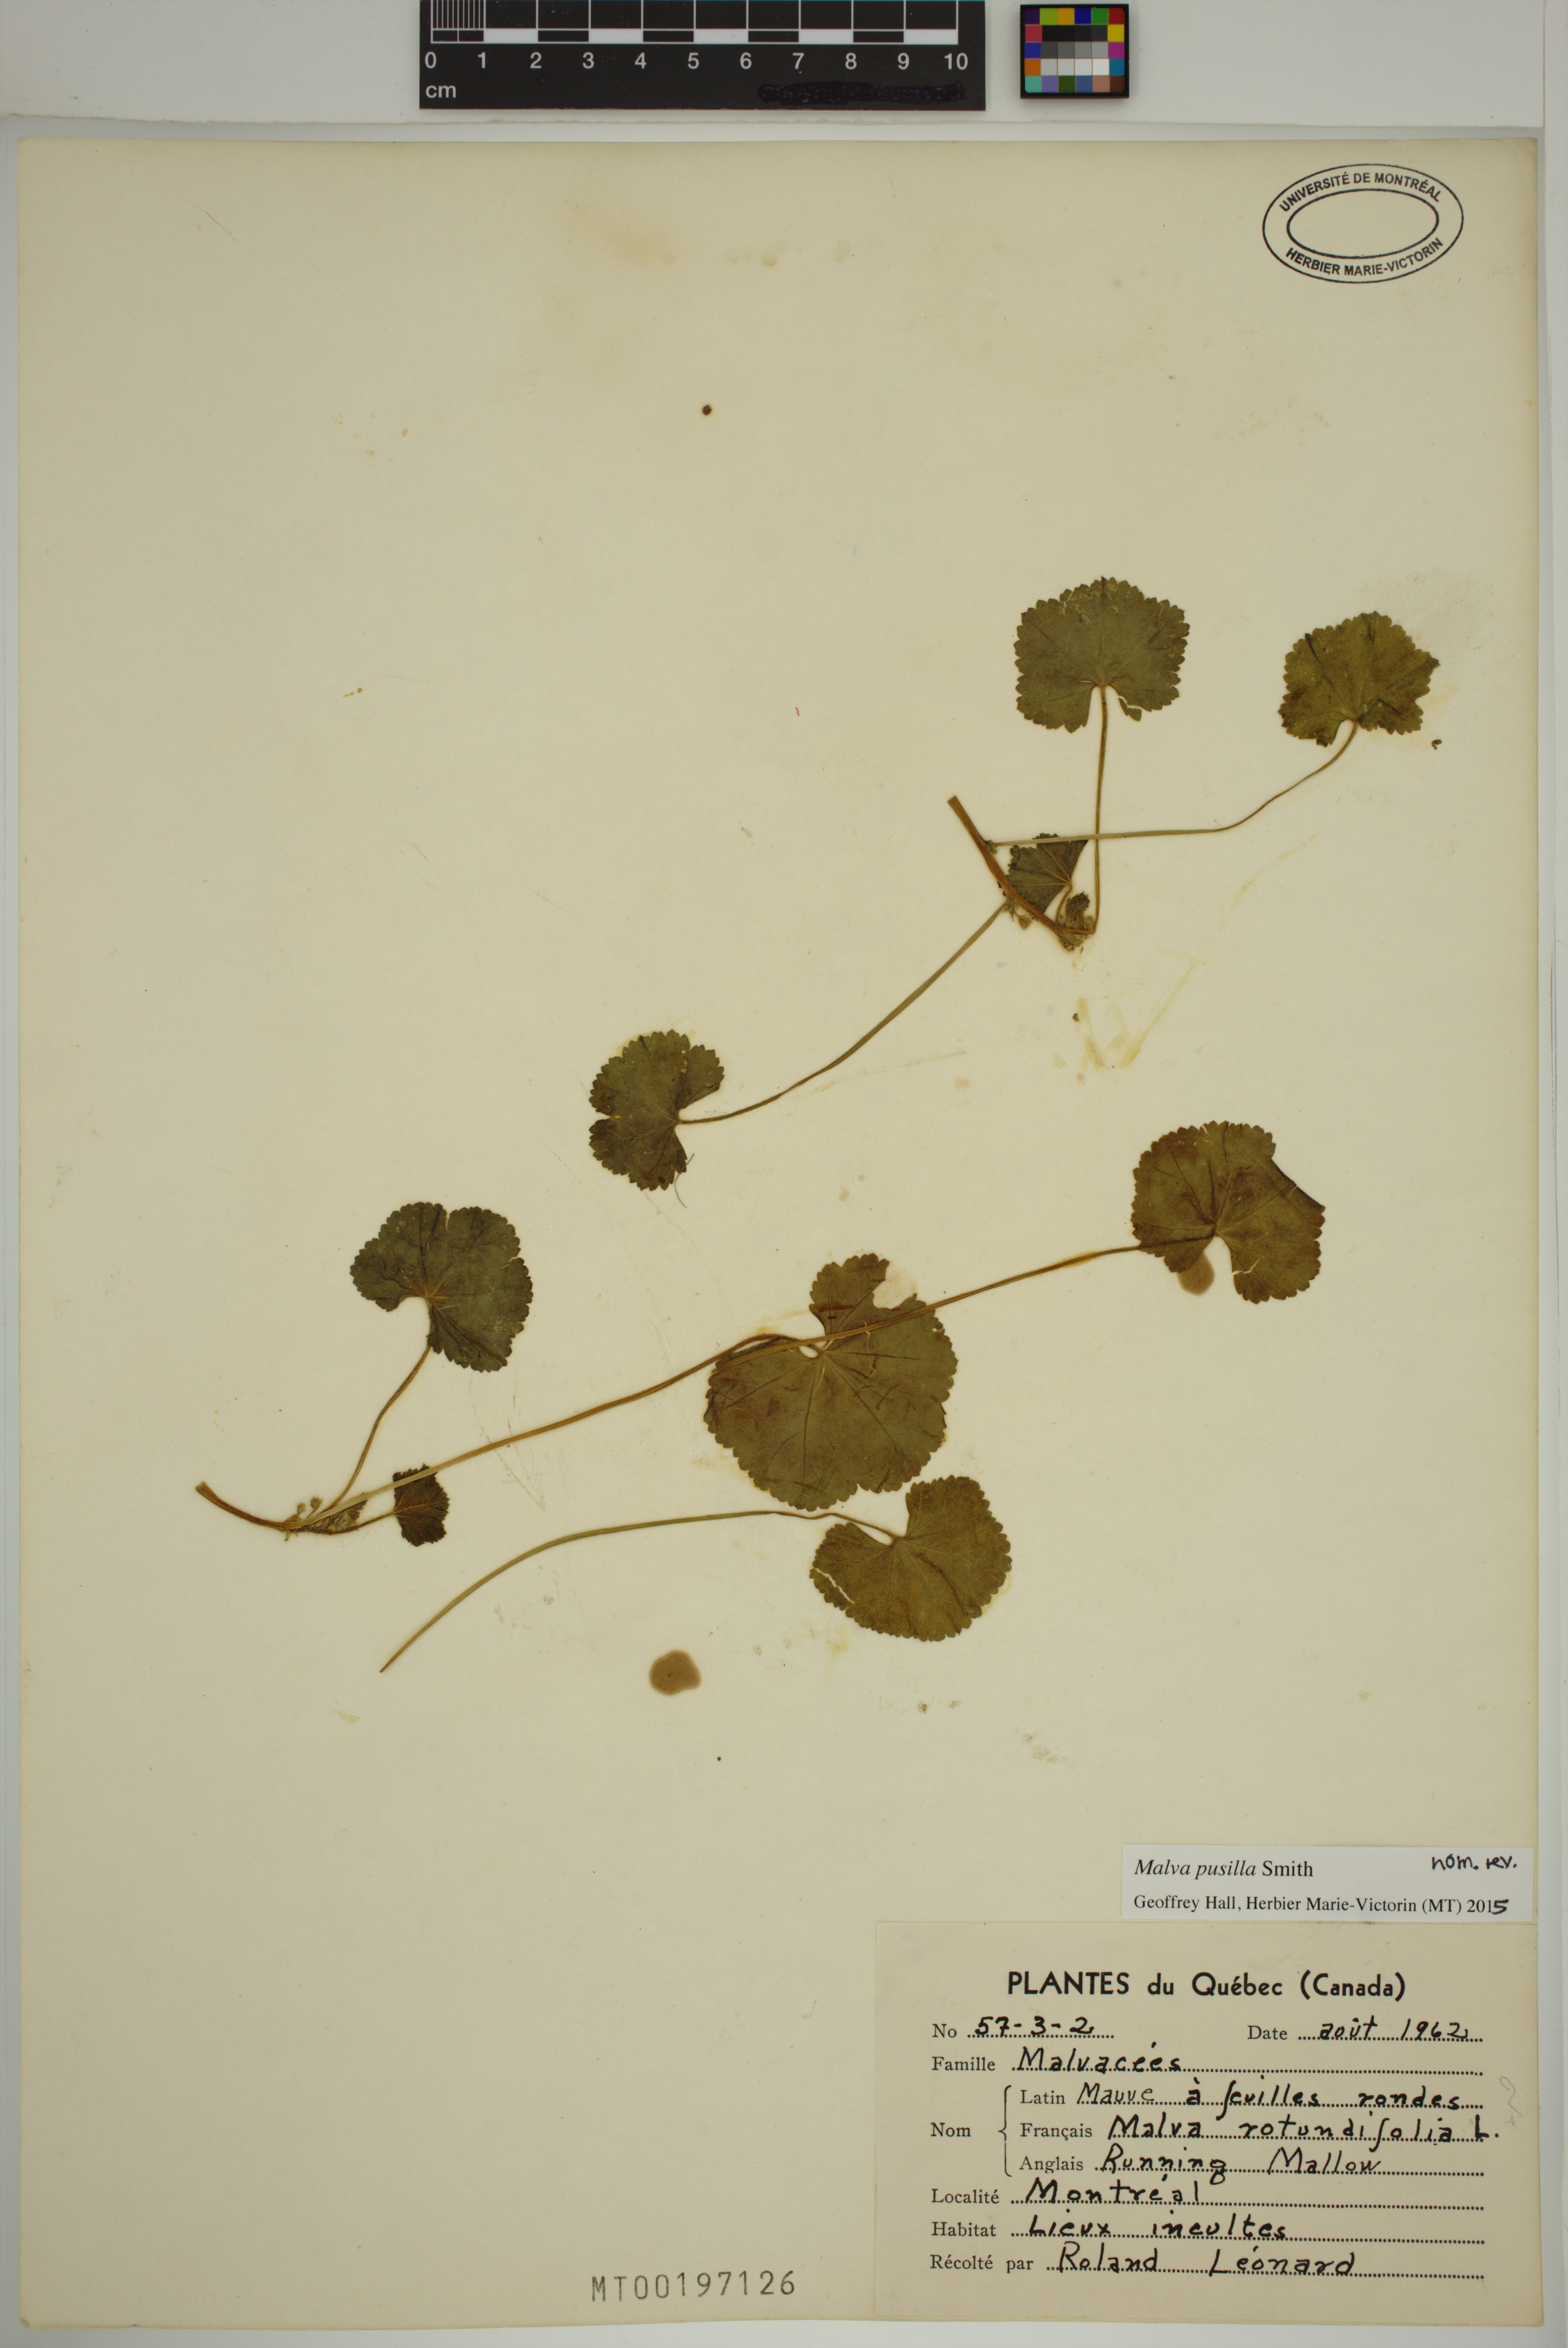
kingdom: Plantae
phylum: Tracheophyta
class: Magnoliopsida
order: Malvales
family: Malvaceae
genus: Malva
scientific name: Malva pusilla
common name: Small mallow
